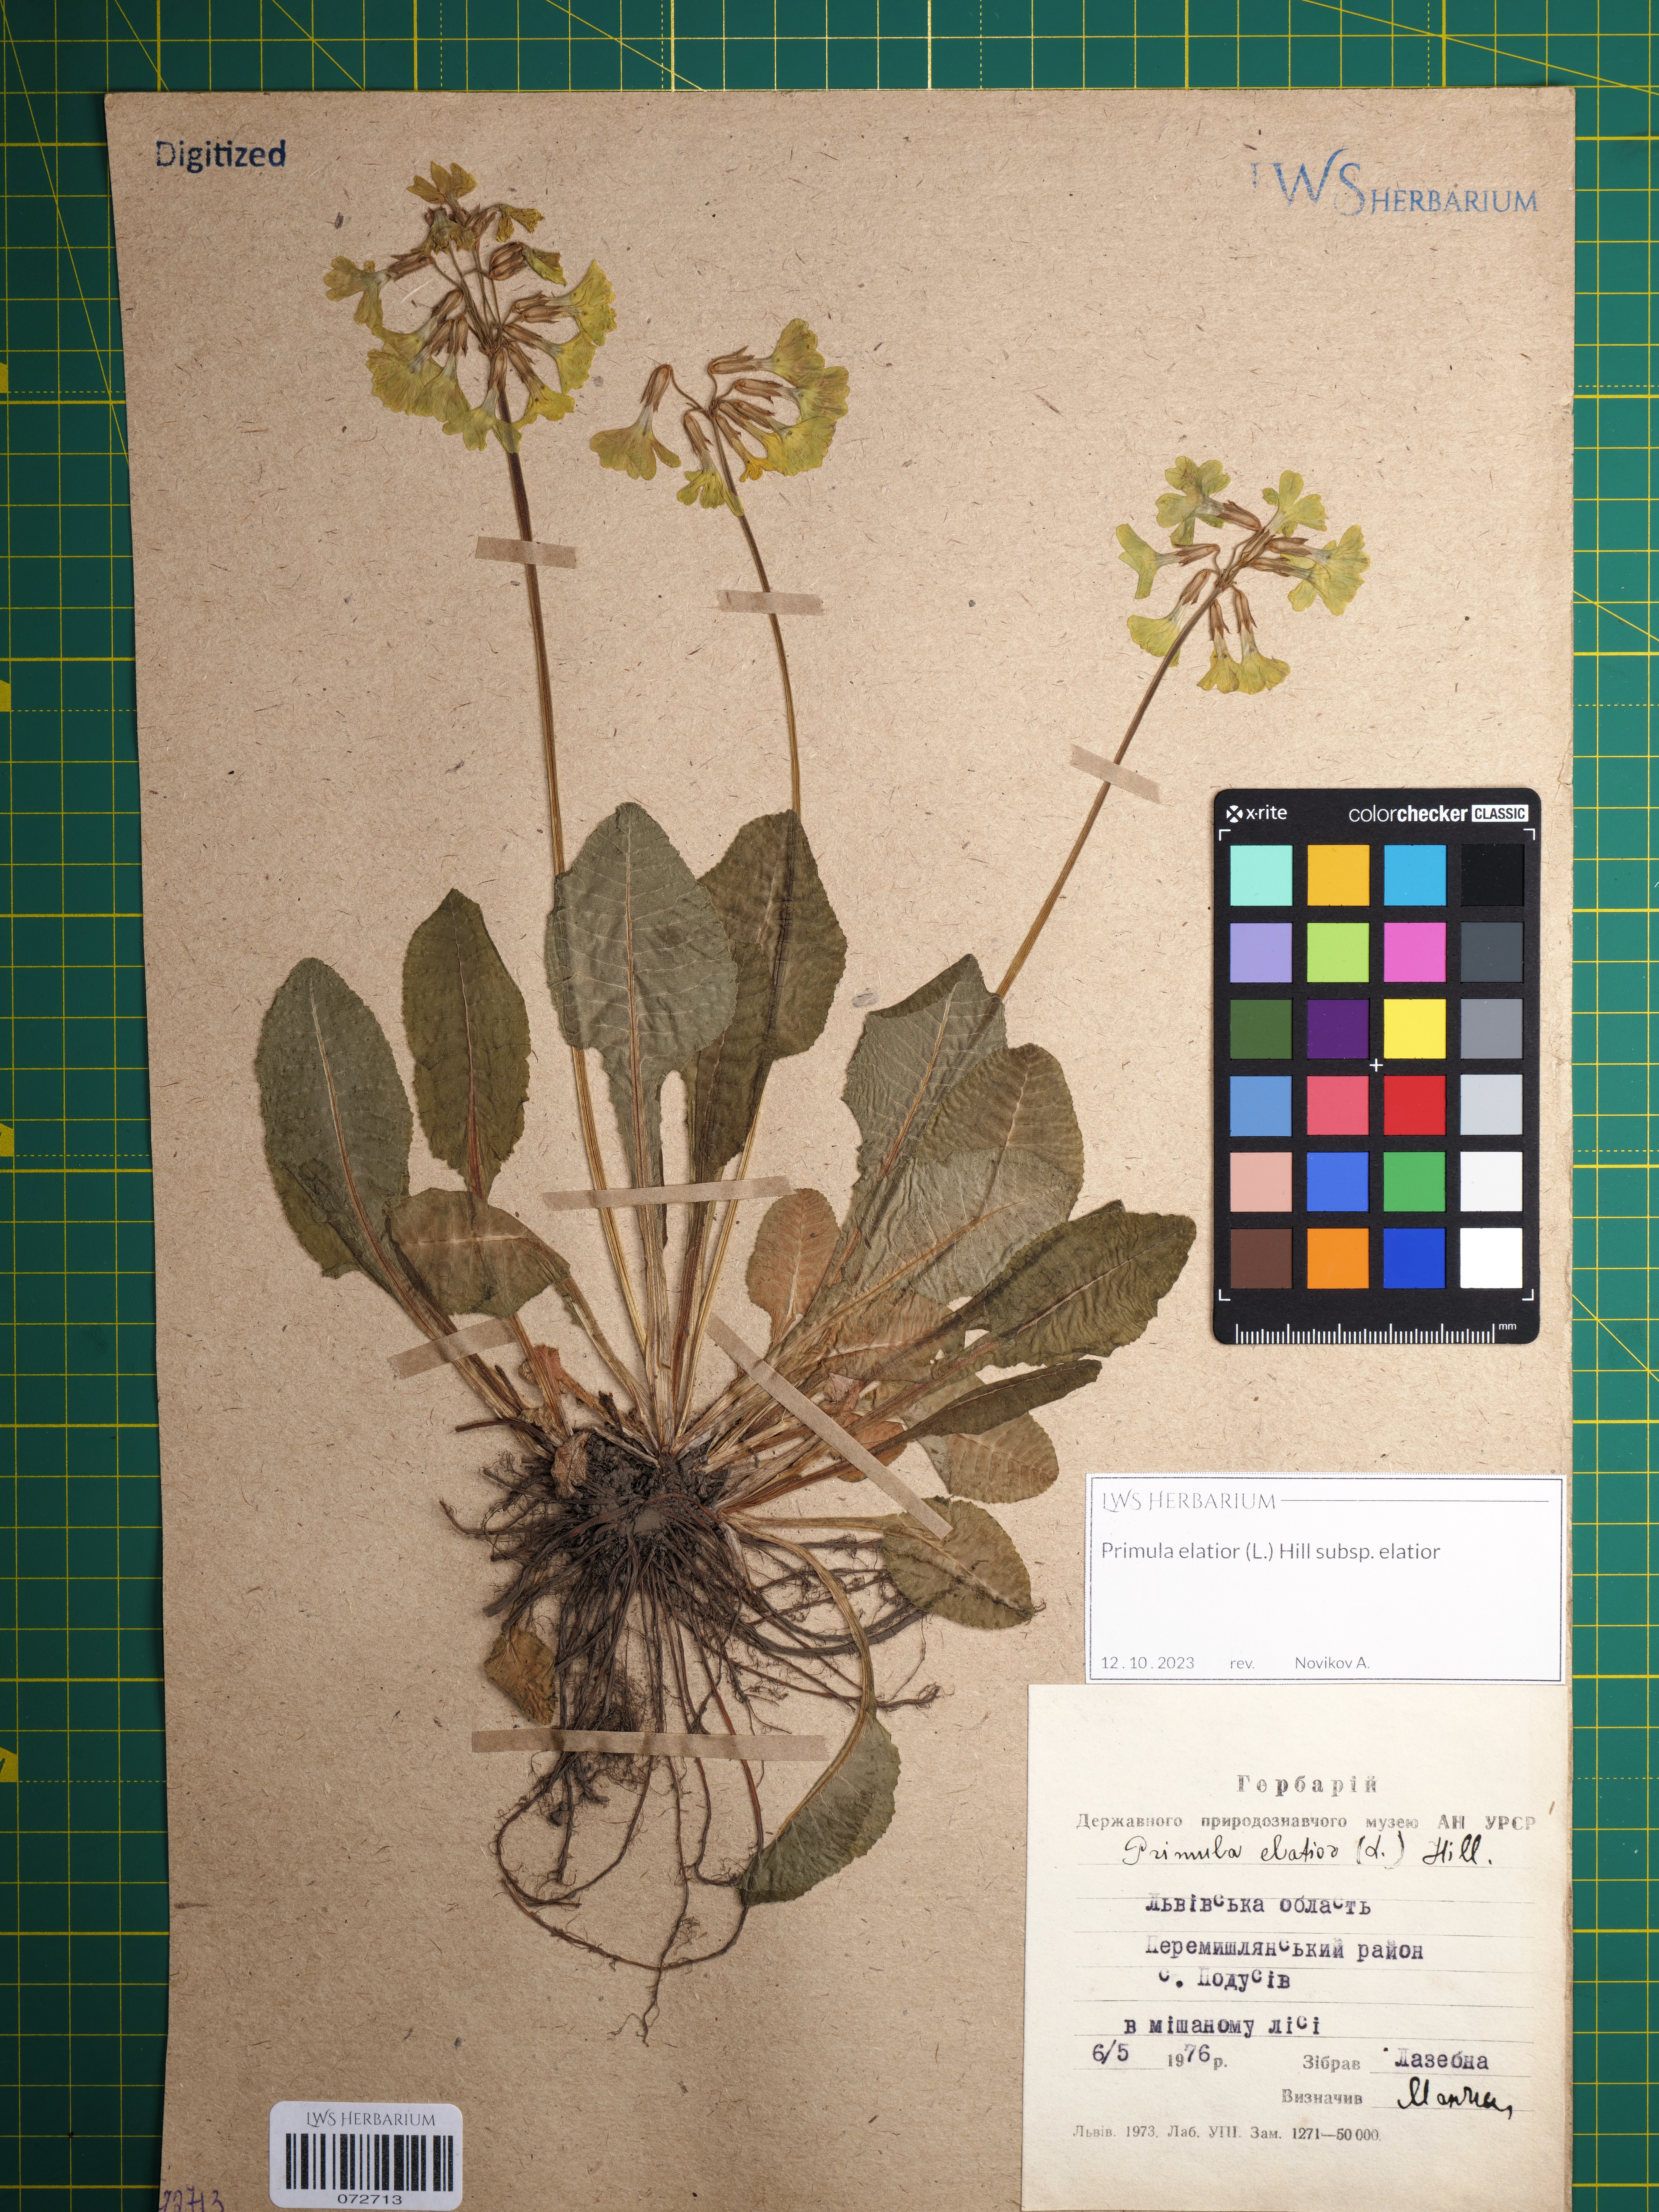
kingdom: Plantae
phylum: Tracheophyta
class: Magnoliopsida
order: Ericales
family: Primulaceae
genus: Primula
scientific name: Primula elatior
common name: Oxlip
